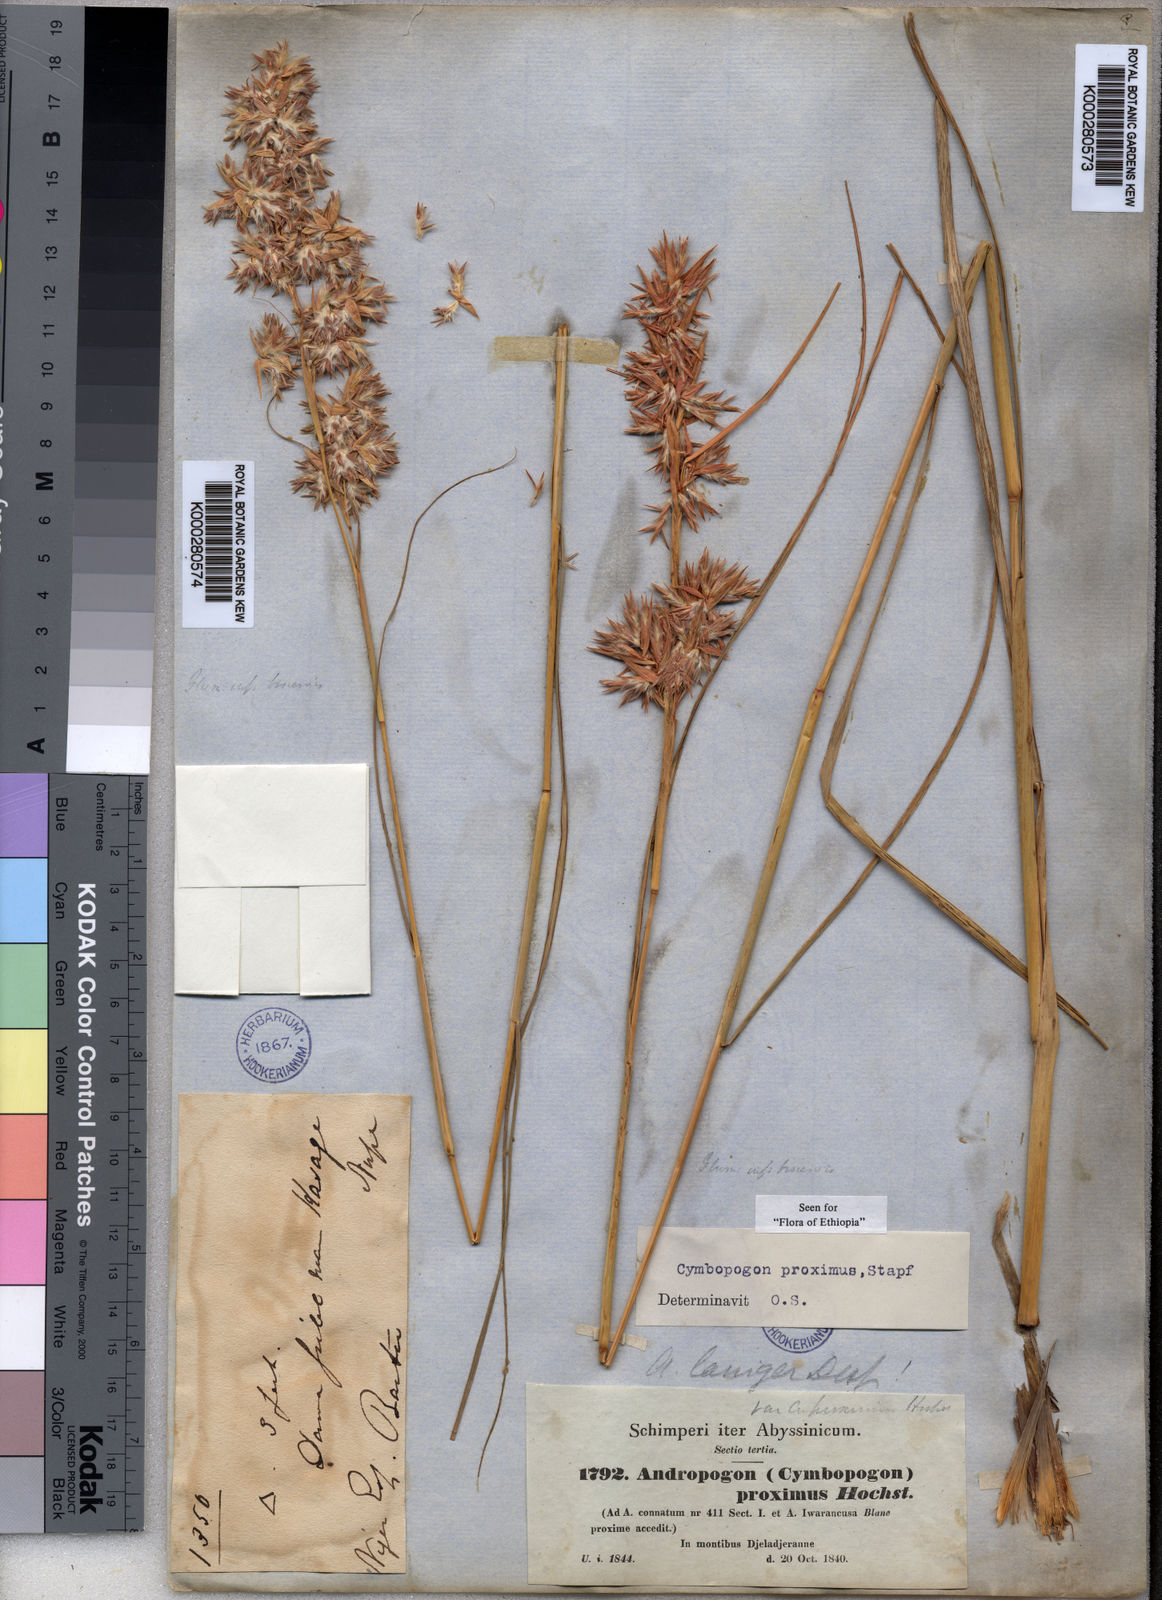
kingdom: Plantae
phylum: Tracheophyta
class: Liliopsida
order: Poales
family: Poaceae
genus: Cymbopogon
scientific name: Cymbopogon schoenanthus
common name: Geranium grass
